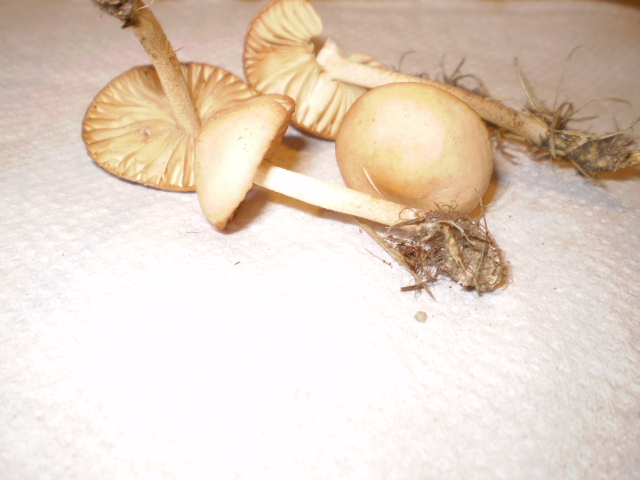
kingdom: Fungi
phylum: Basidiomycota
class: Agaricomycetes
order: Agaricales
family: Marasmiaceae
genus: Marasmius
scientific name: Marasmius oreades
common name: elledans-bruskhat
